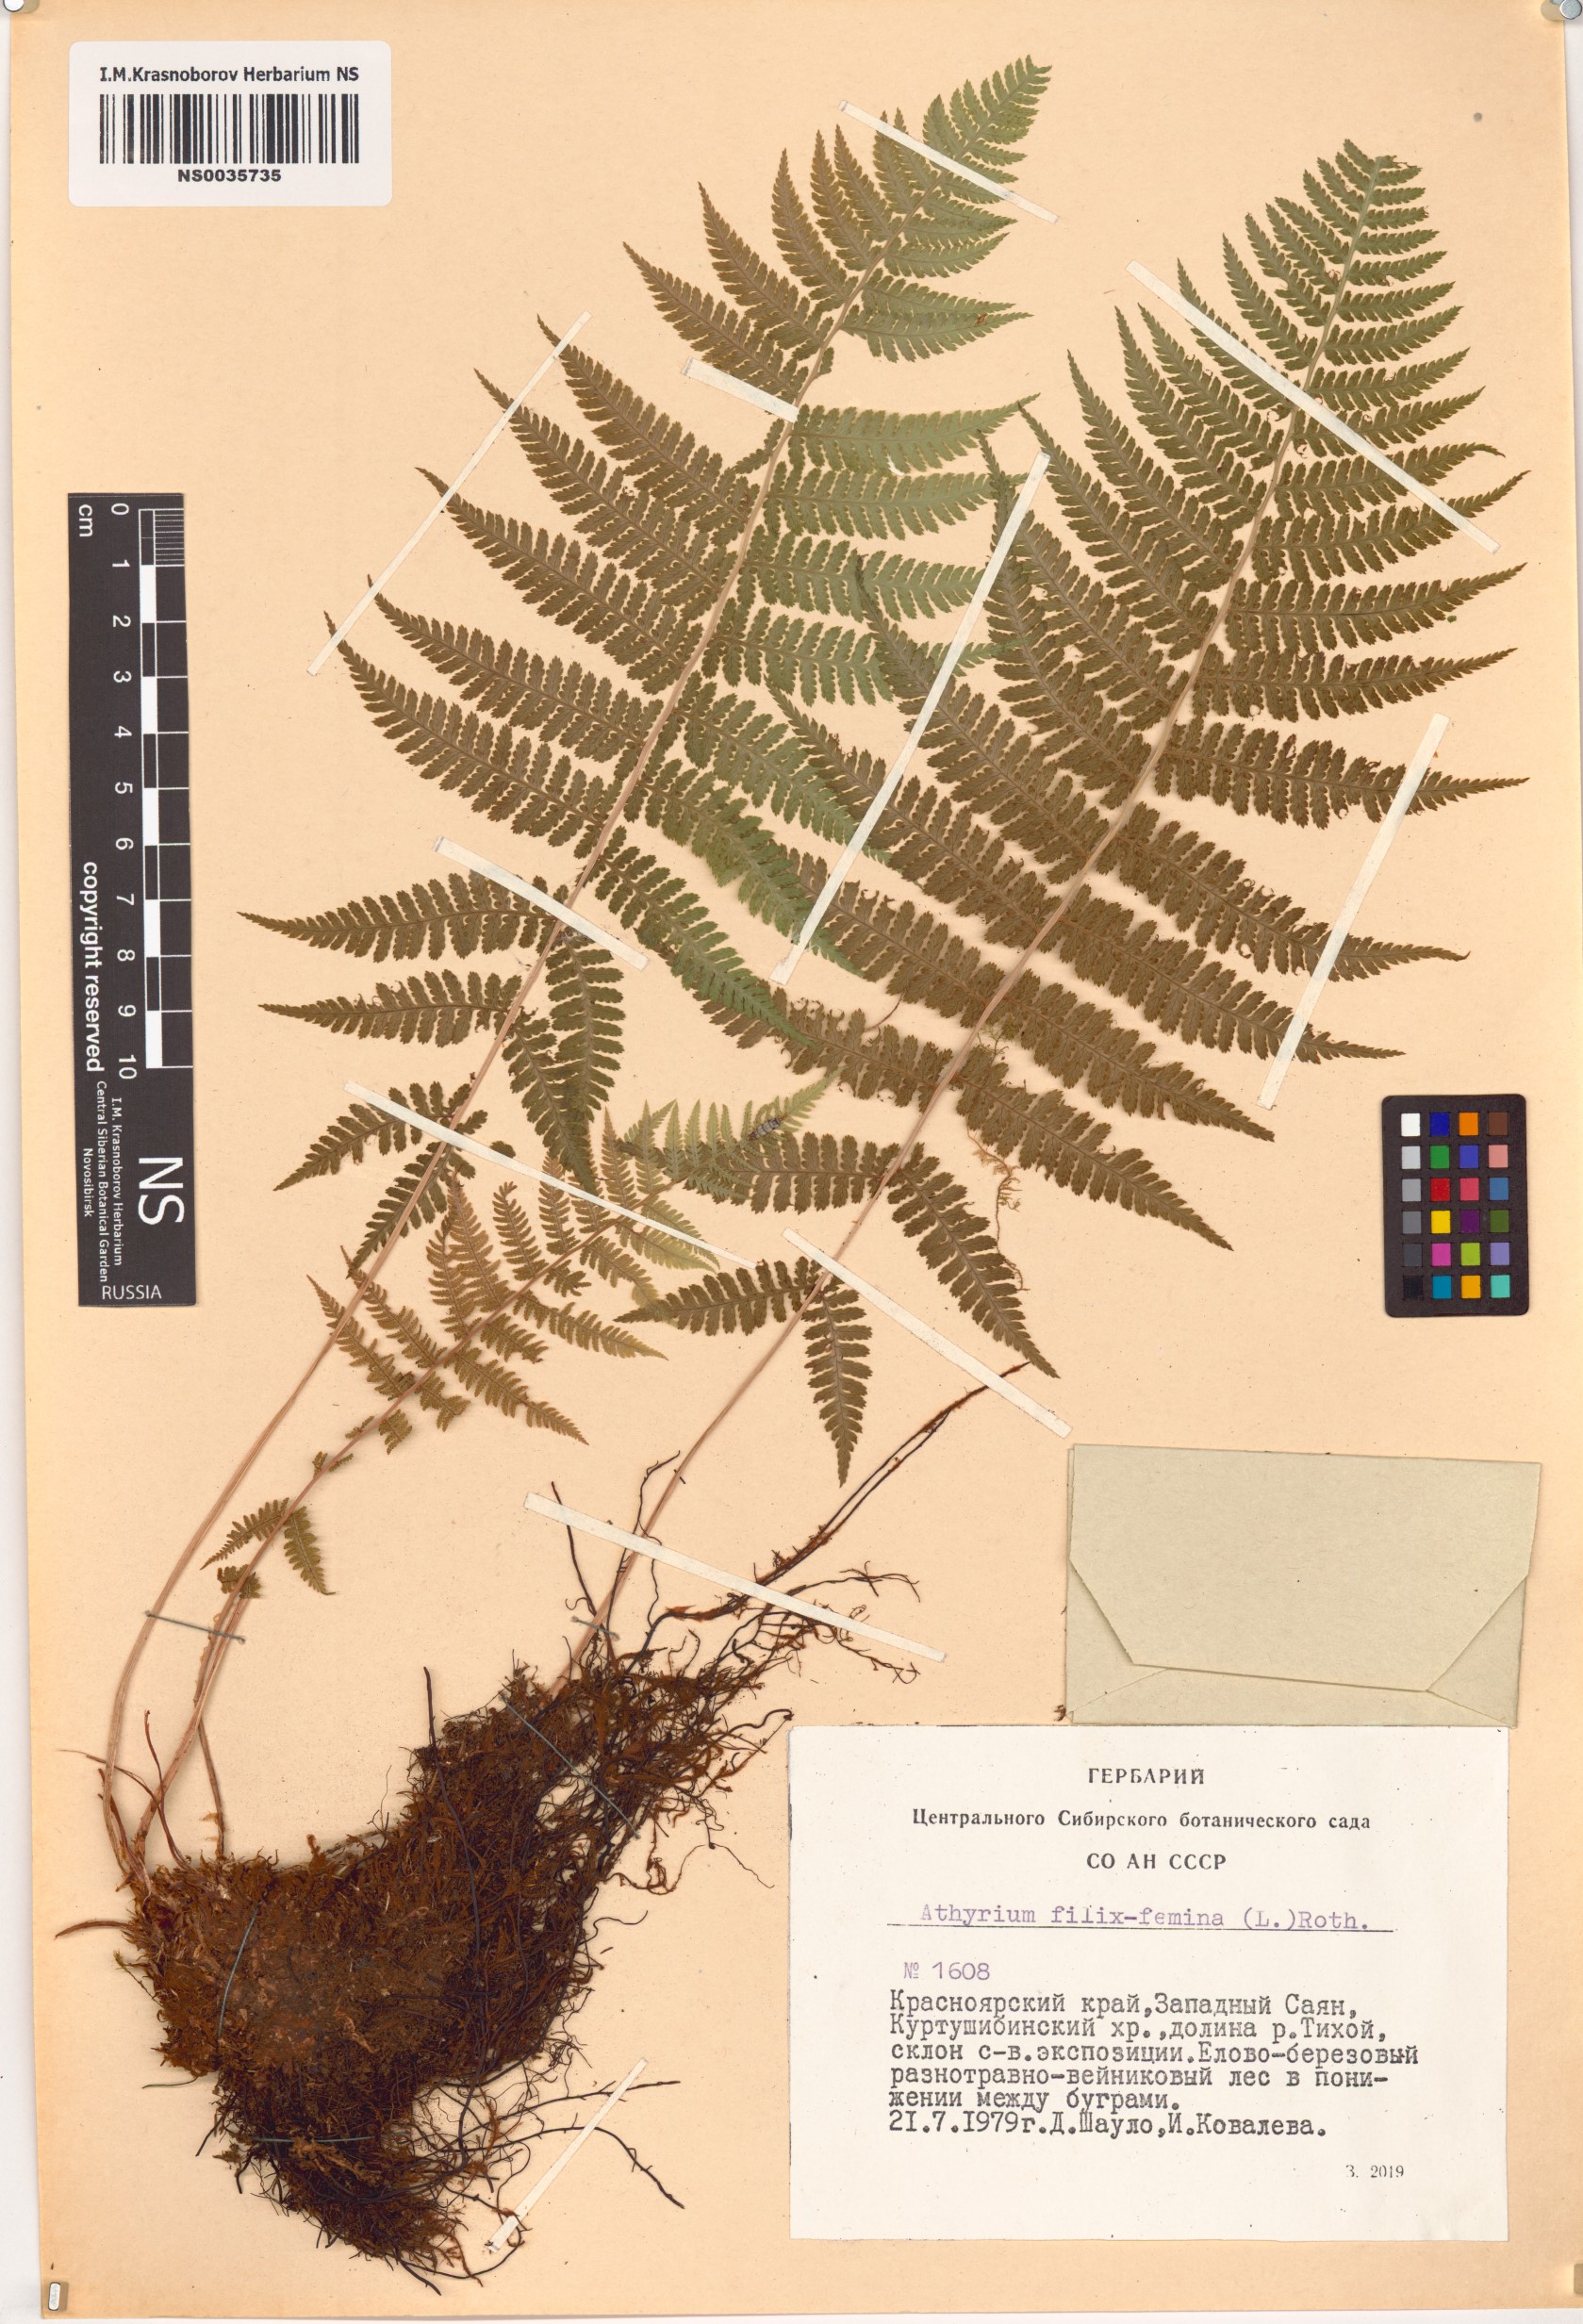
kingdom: Plantae
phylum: Tracheophyta
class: Polypodiopsida
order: Polypodiales
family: Athyriaceae
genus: Athyrium
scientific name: Athyrium filix-femina
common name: Lady fern
